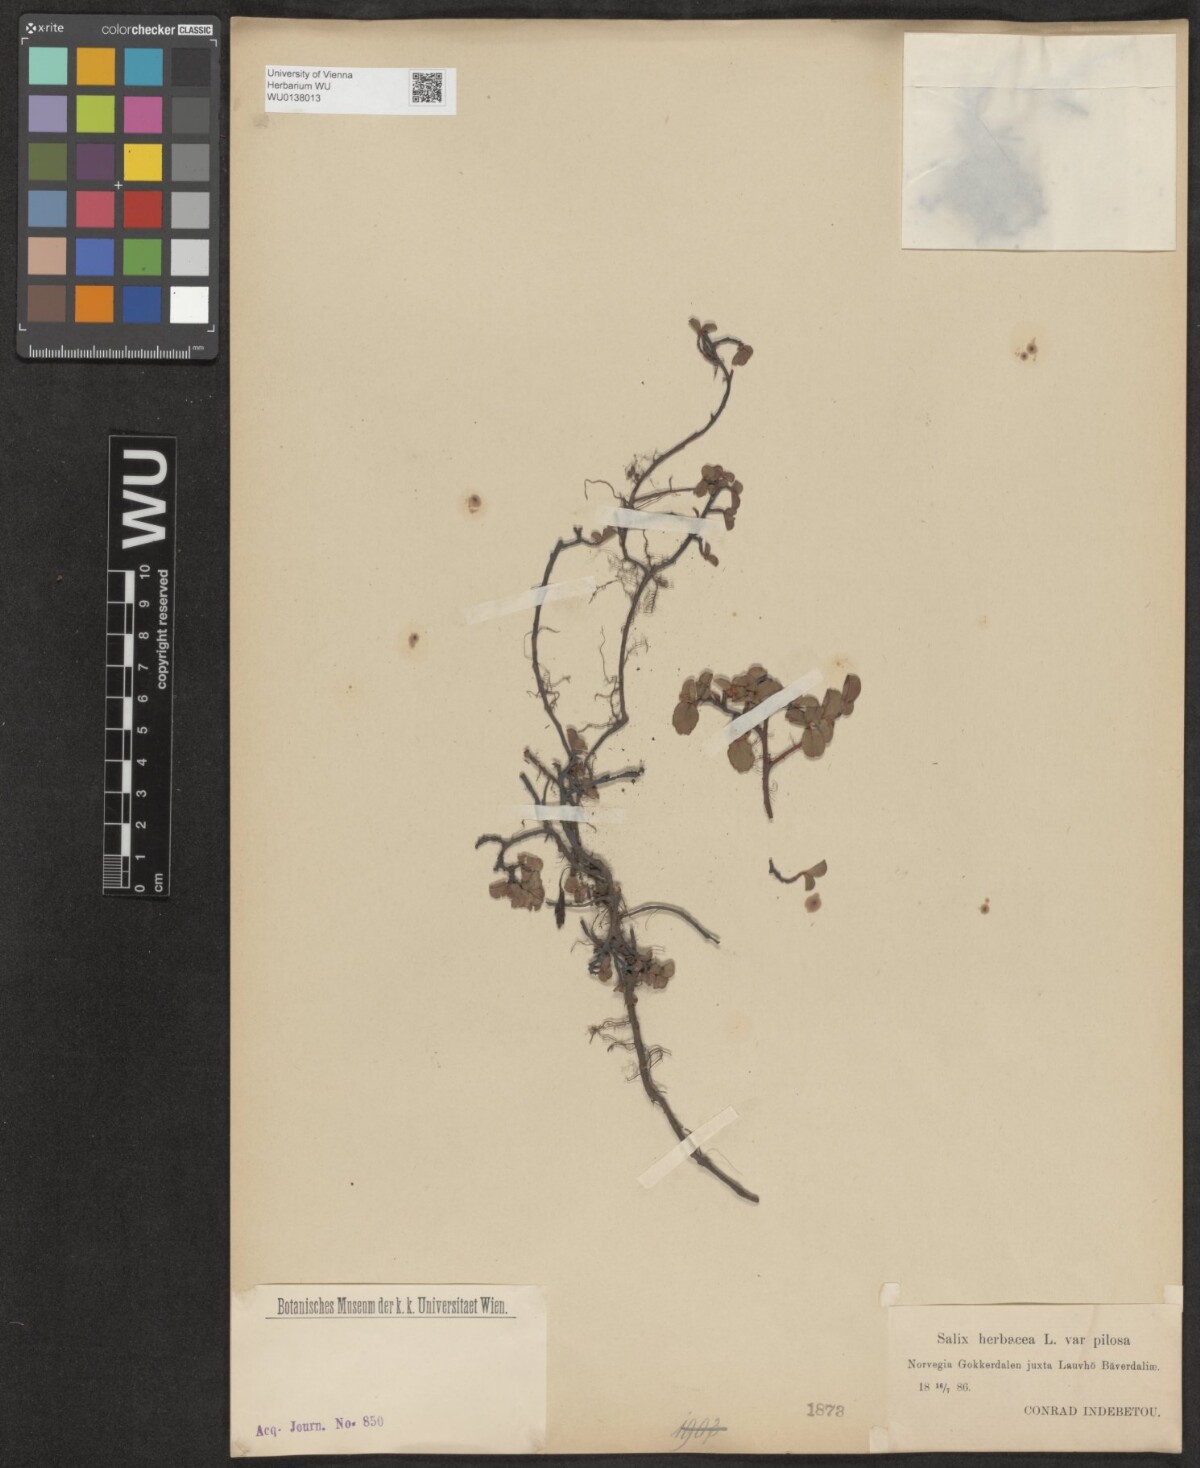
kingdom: Plantae
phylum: Tracheophyta
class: Magnoliopsida
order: Malpighiales
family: Salicaceae
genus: Salix
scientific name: Salix herbacea
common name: Dwarf willow
